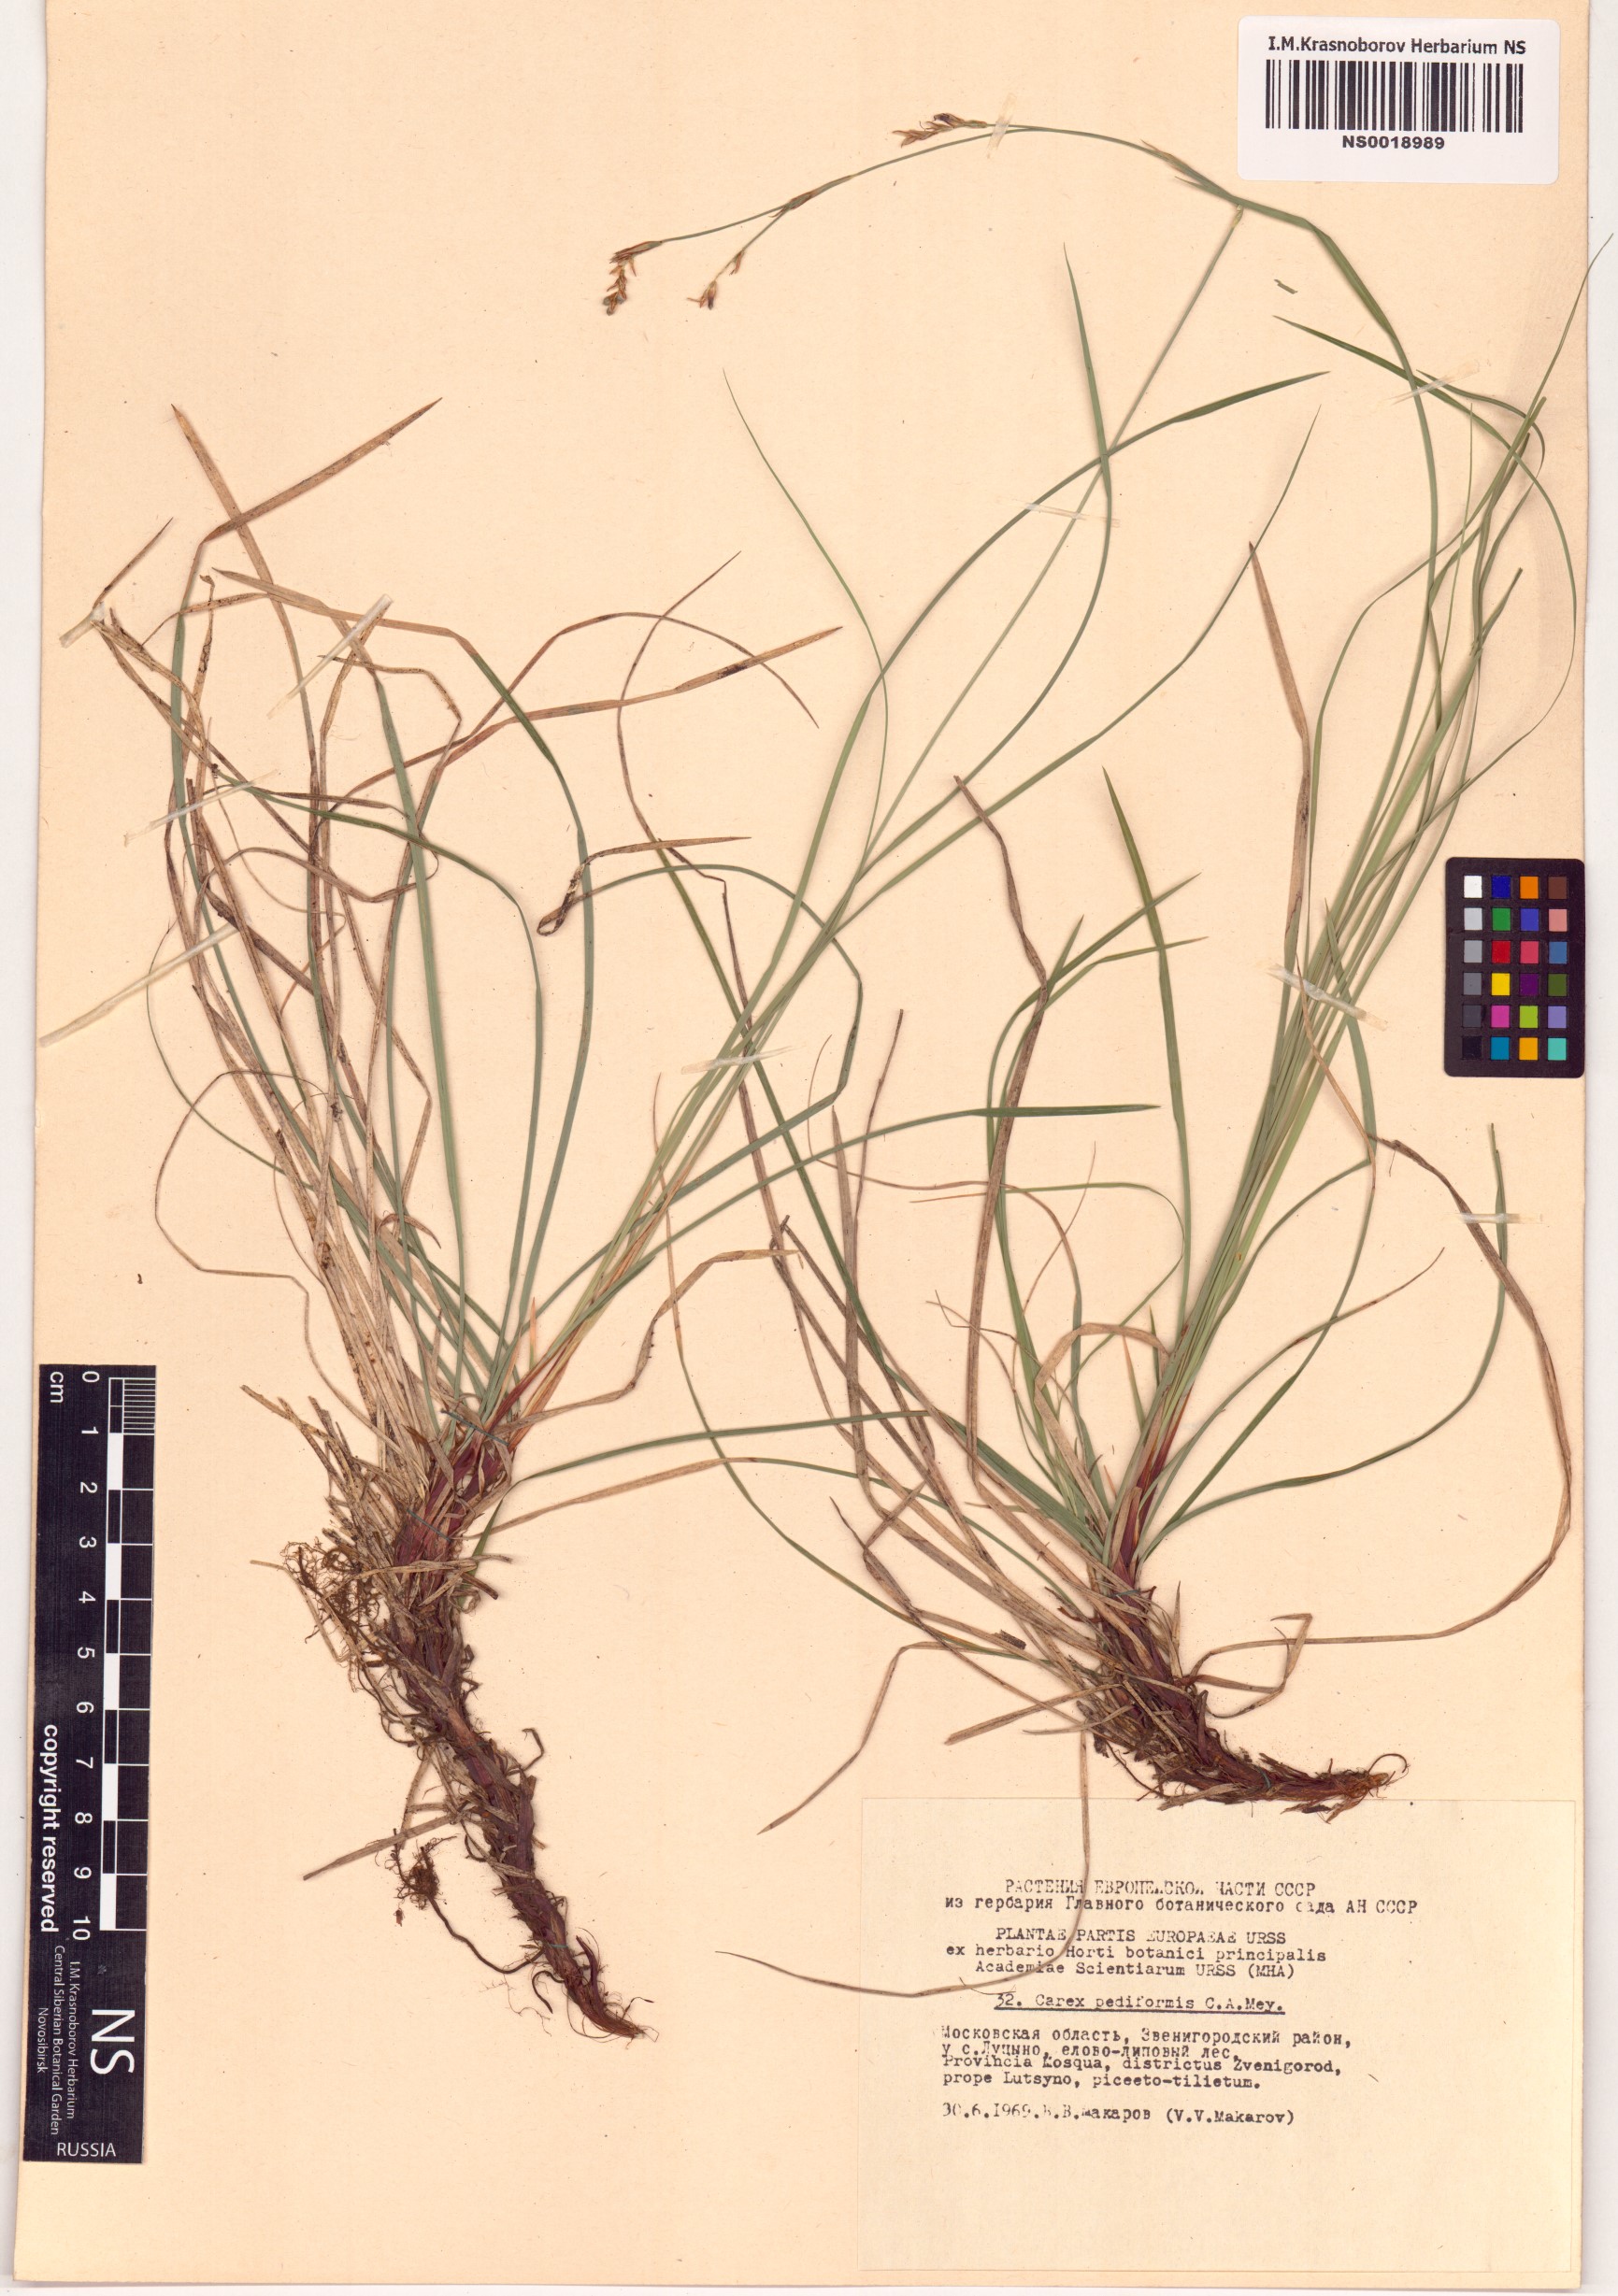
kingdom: Plantae
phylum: Tracheophyta
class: Liliopsida
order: Poales
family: Cyperaceae
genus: Carex
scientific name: Carex pediformis
